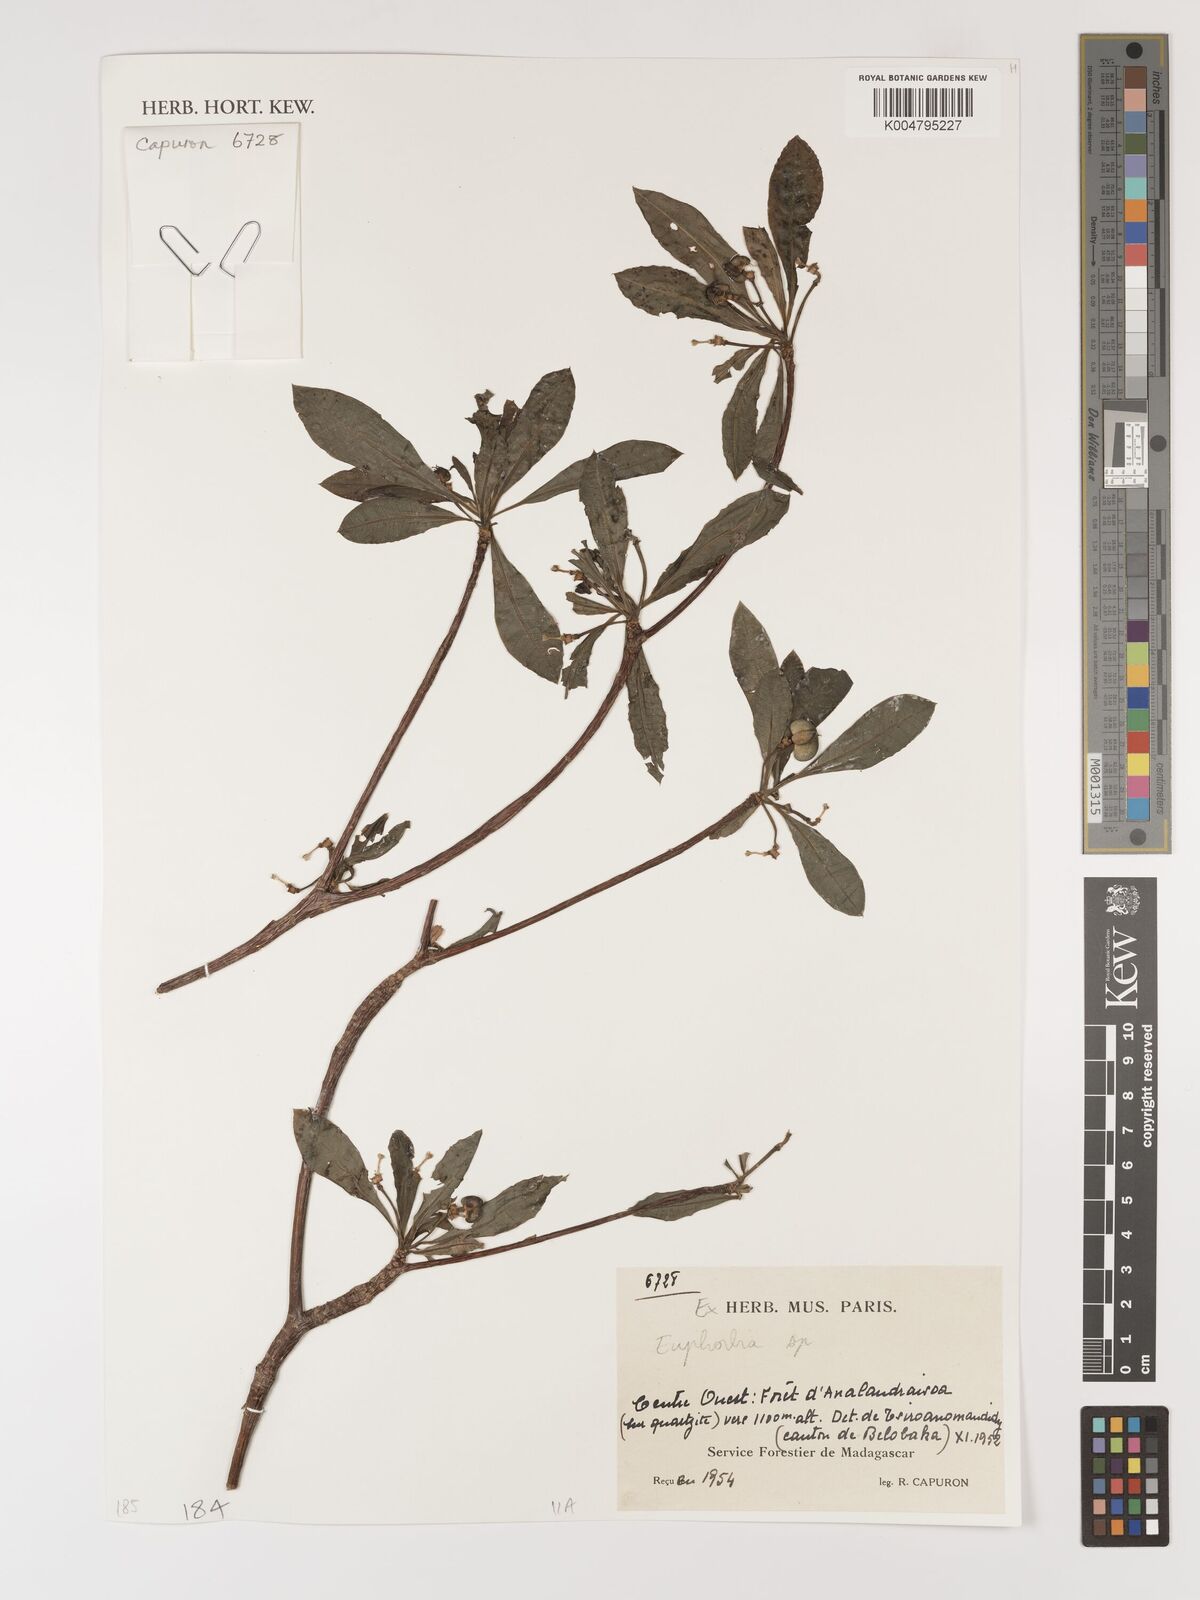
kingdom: Plantae
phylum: Tracheophyta
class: Magnoliopsida
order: Malpighiales
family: Euphorbiaceae
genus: Euphorbia
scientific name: Euphorbia
